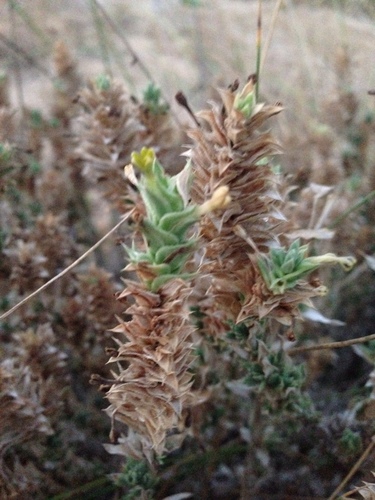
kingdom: Plantae
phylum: Tracheophyta
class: Magnoliopsida
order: Gentianales
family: Rubiaceae
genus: Crucianella
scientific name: Crucianella maritima
